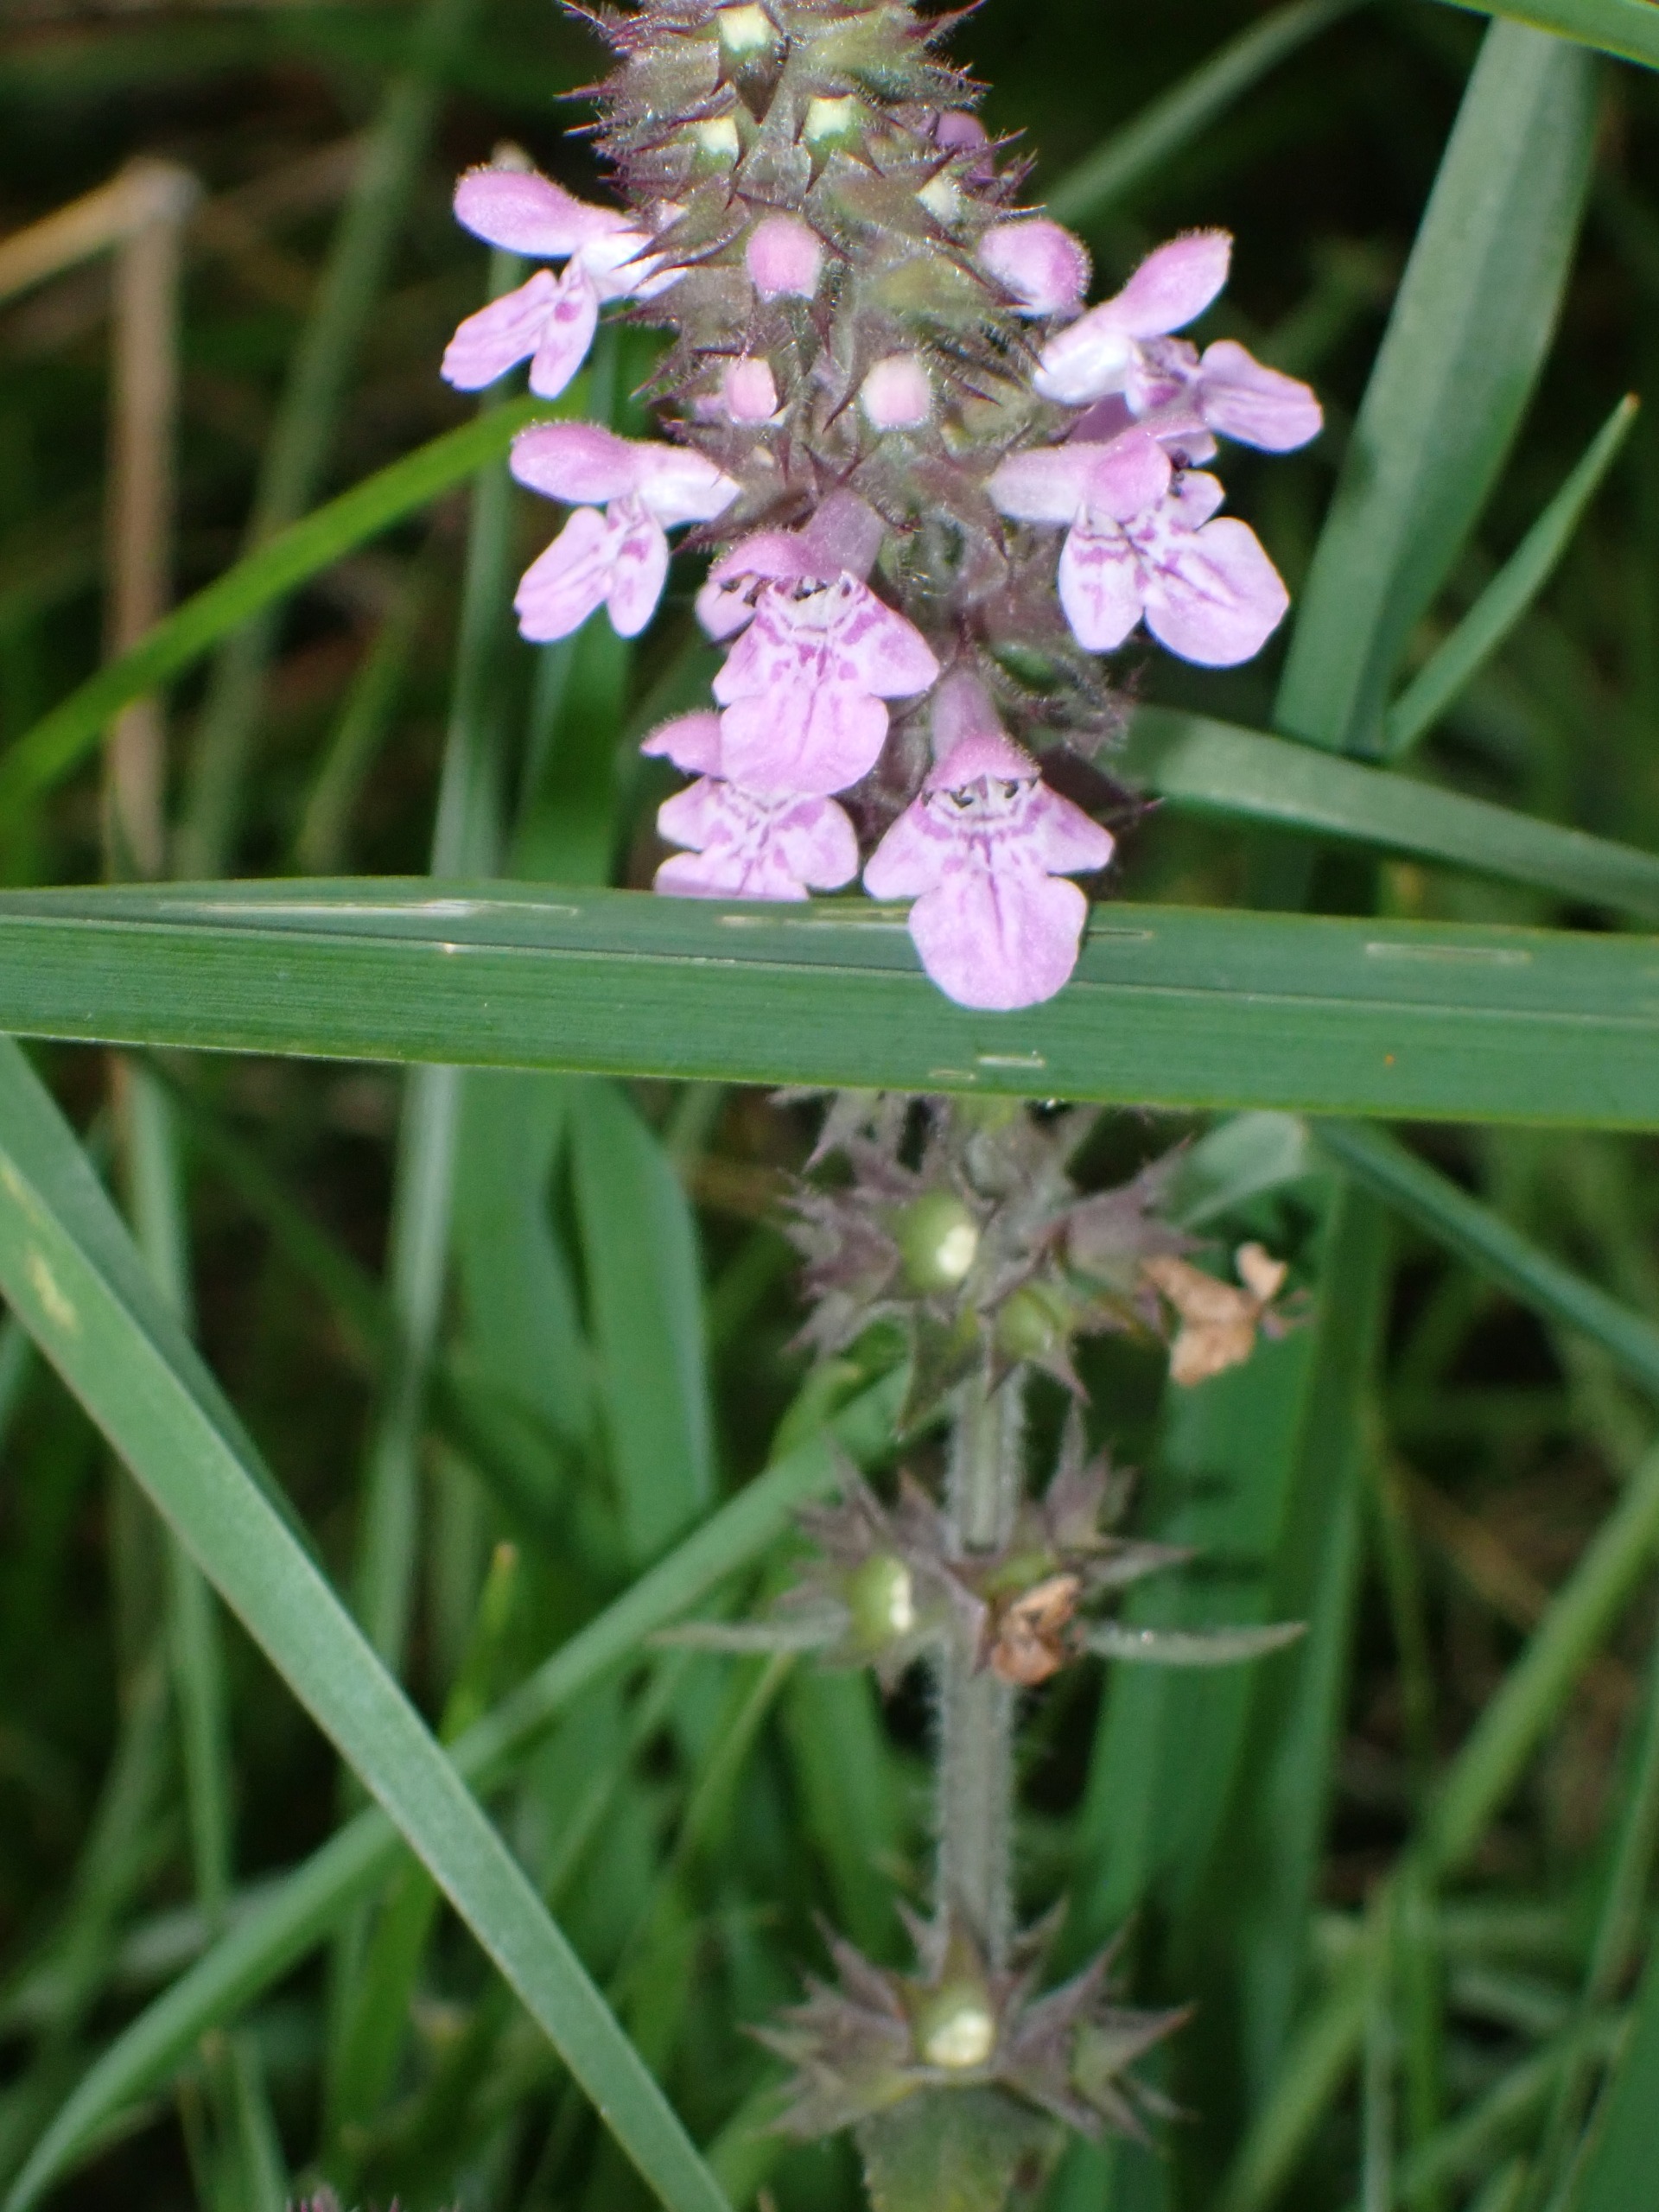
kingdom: Plantae
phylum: Tracheophyta
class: Magnoliopsida
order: Lamiales
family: Lamiaceae
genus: Stachys
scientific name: Stachys palustris
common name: Kær-galtetand
